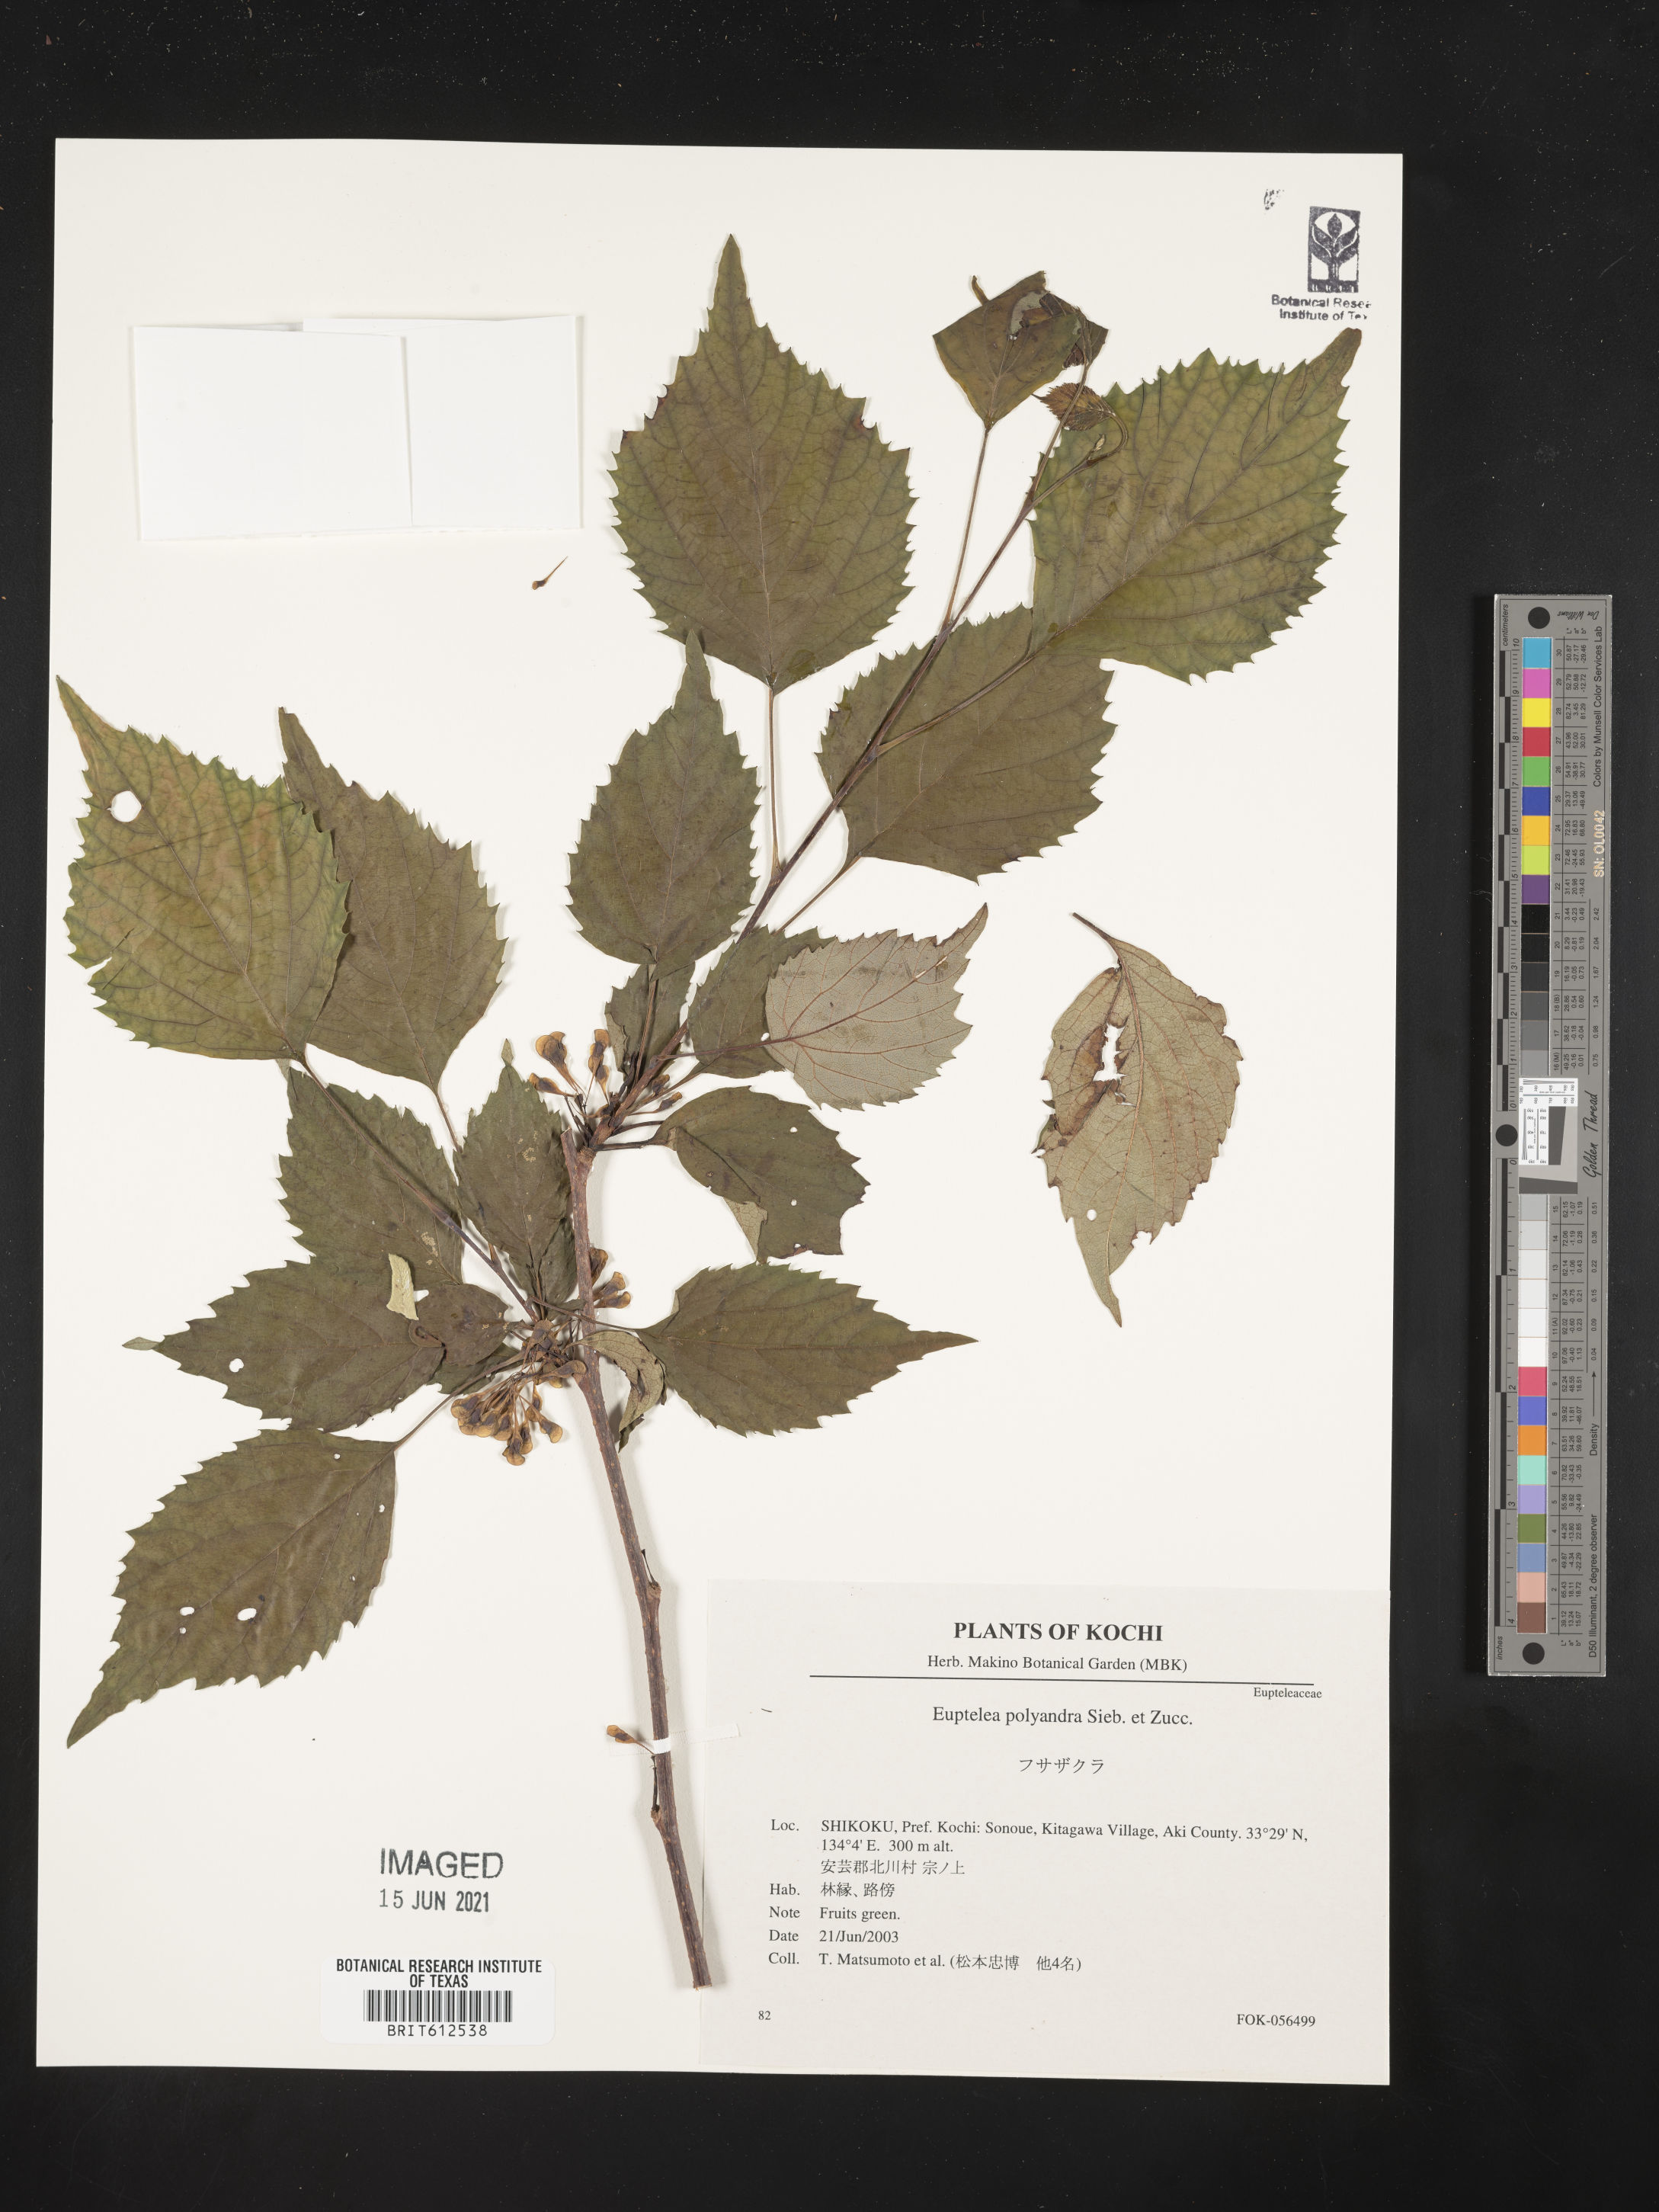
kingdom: Plantae
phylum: Tracheophyta
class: Magnoliopsida
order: Ranunculales
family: Eupteleaceae
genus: Euptelea
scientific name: Euptelea polyandra
